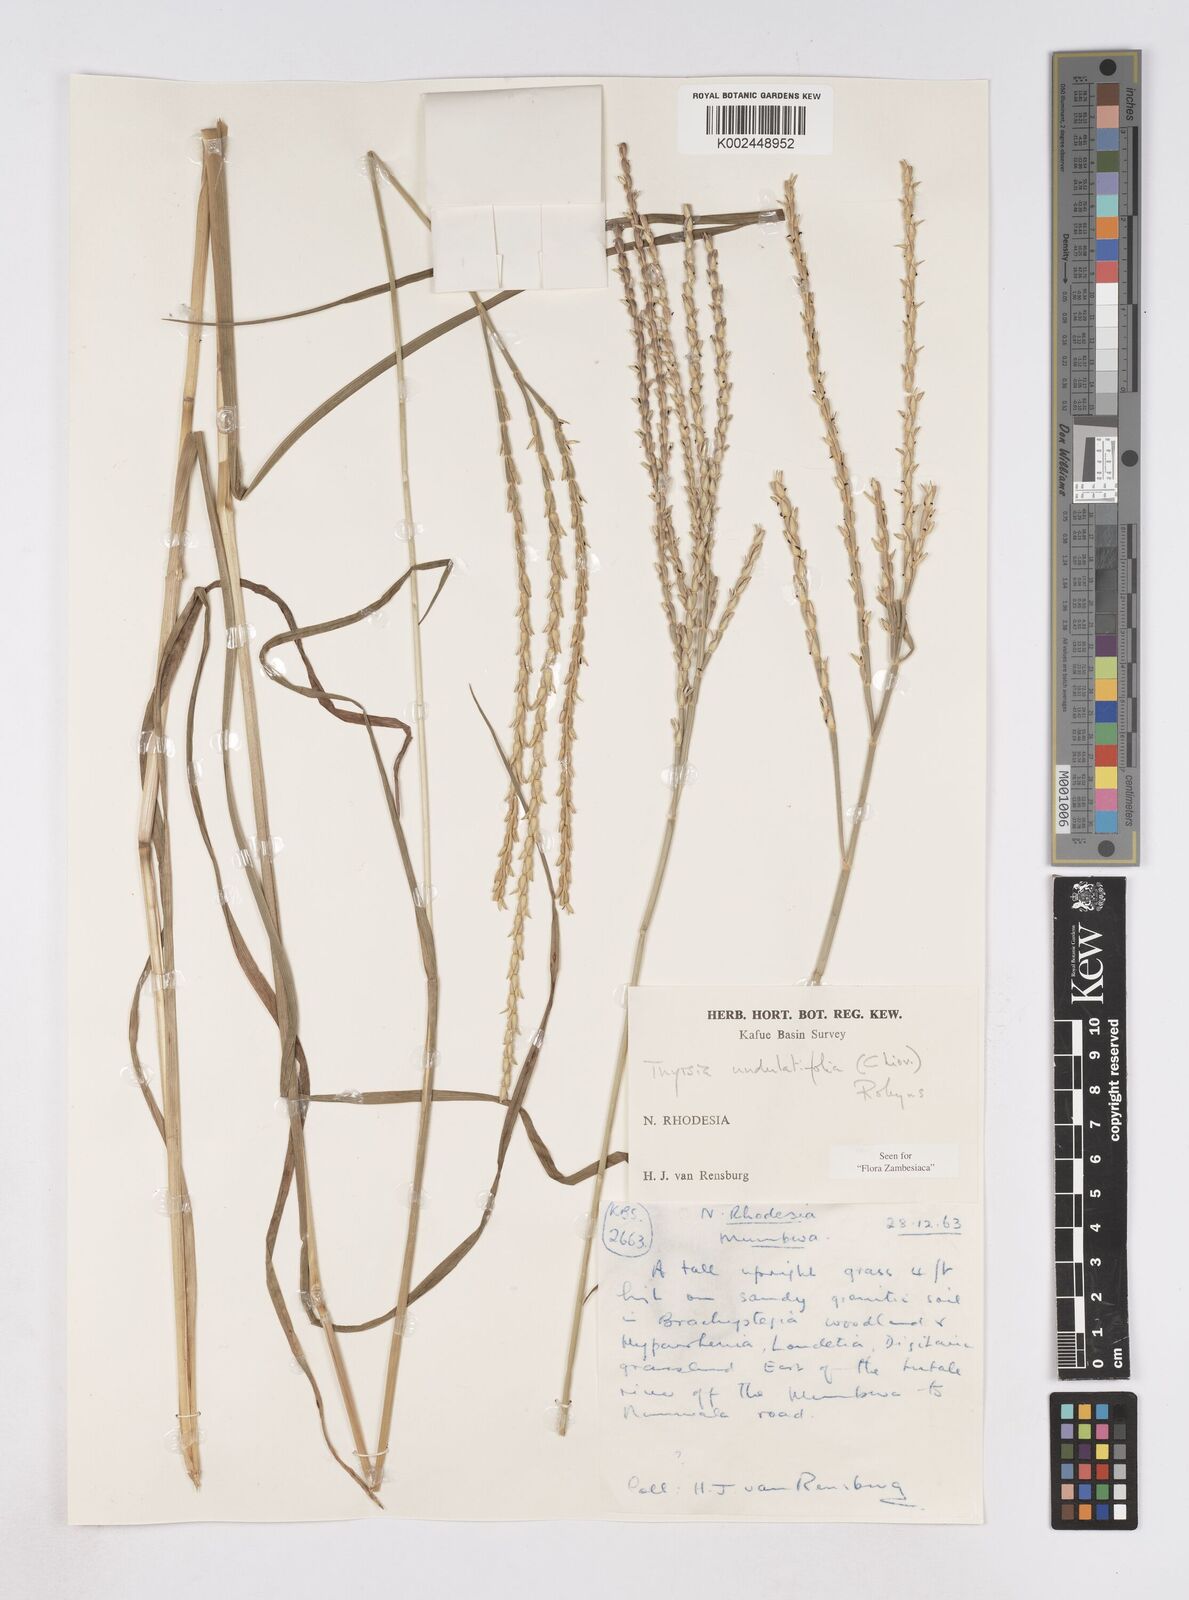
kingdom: Plantae
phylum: Tracheophyta
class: Liliopsida
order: Poales
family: Poaceae
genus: Thyrsia
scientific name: Thyrsia huillensis
